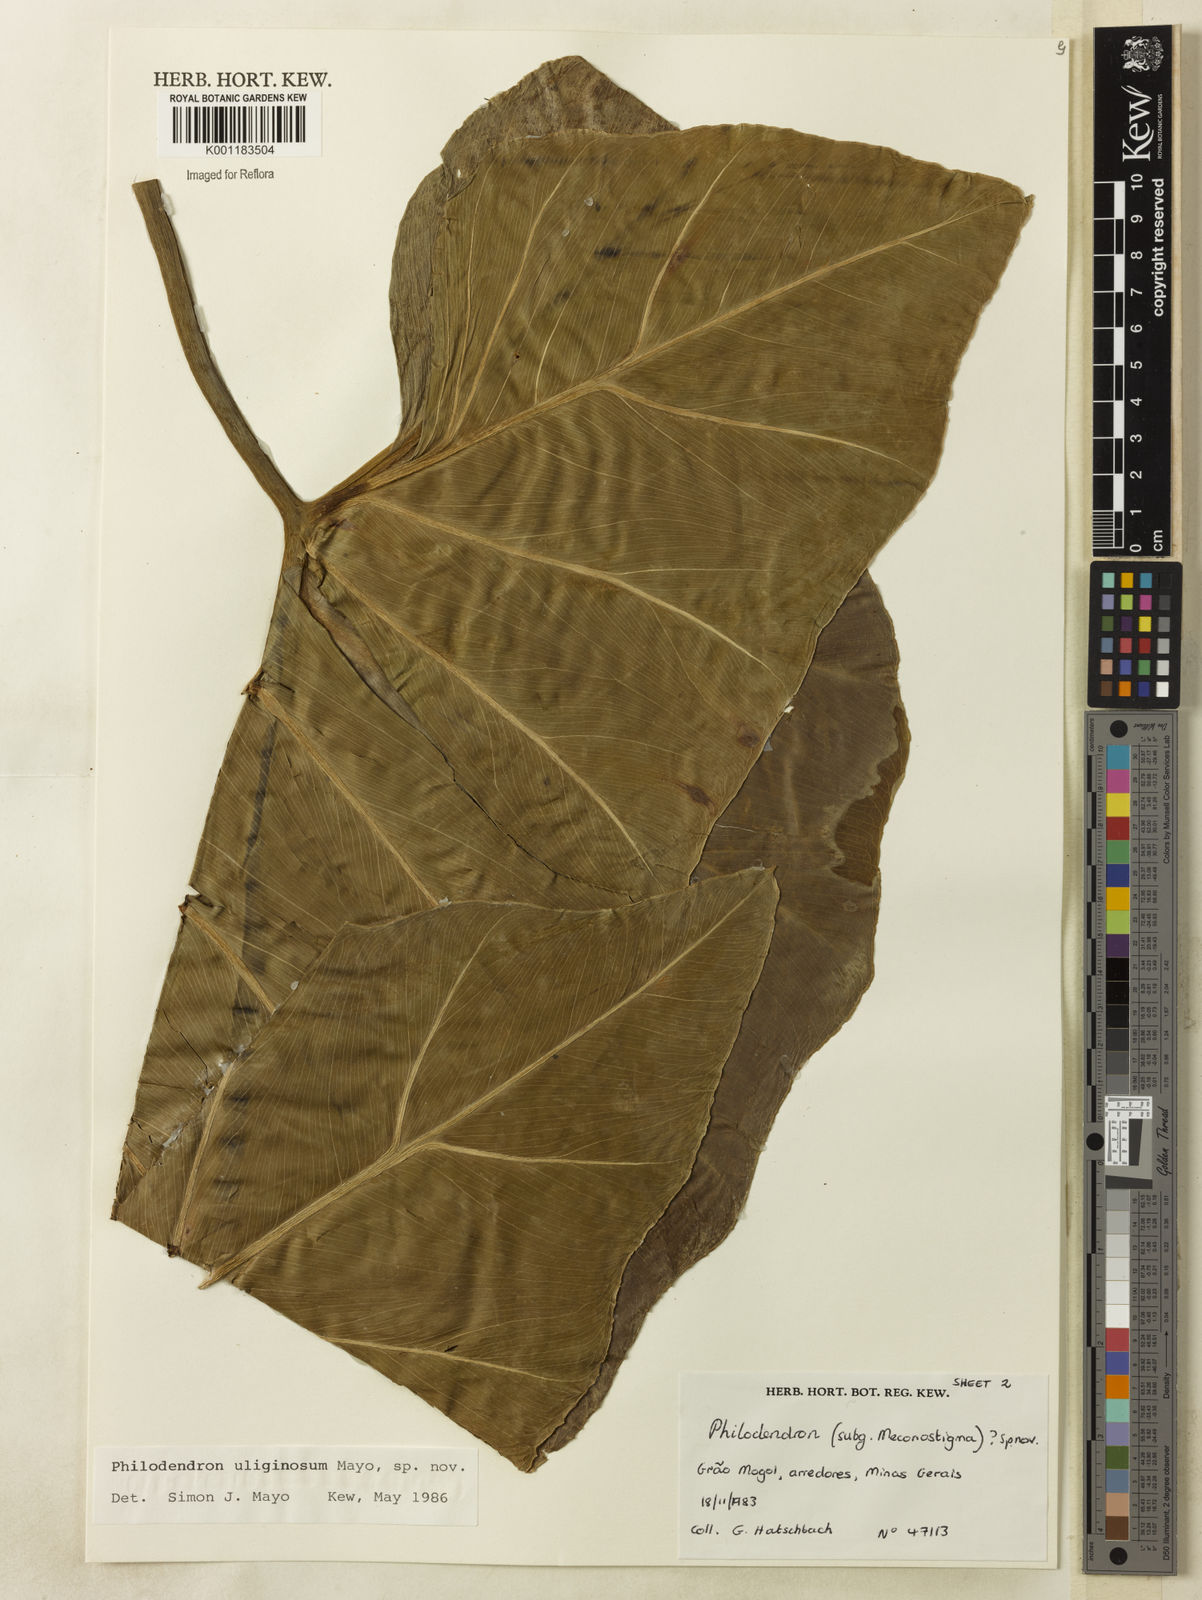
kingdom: Plantae
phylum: Tracheophyta
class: Liliopsida
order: Alismatales
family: Araceae
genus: Thaumatophyllum
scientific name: Thaumatophyllum uliginosum
